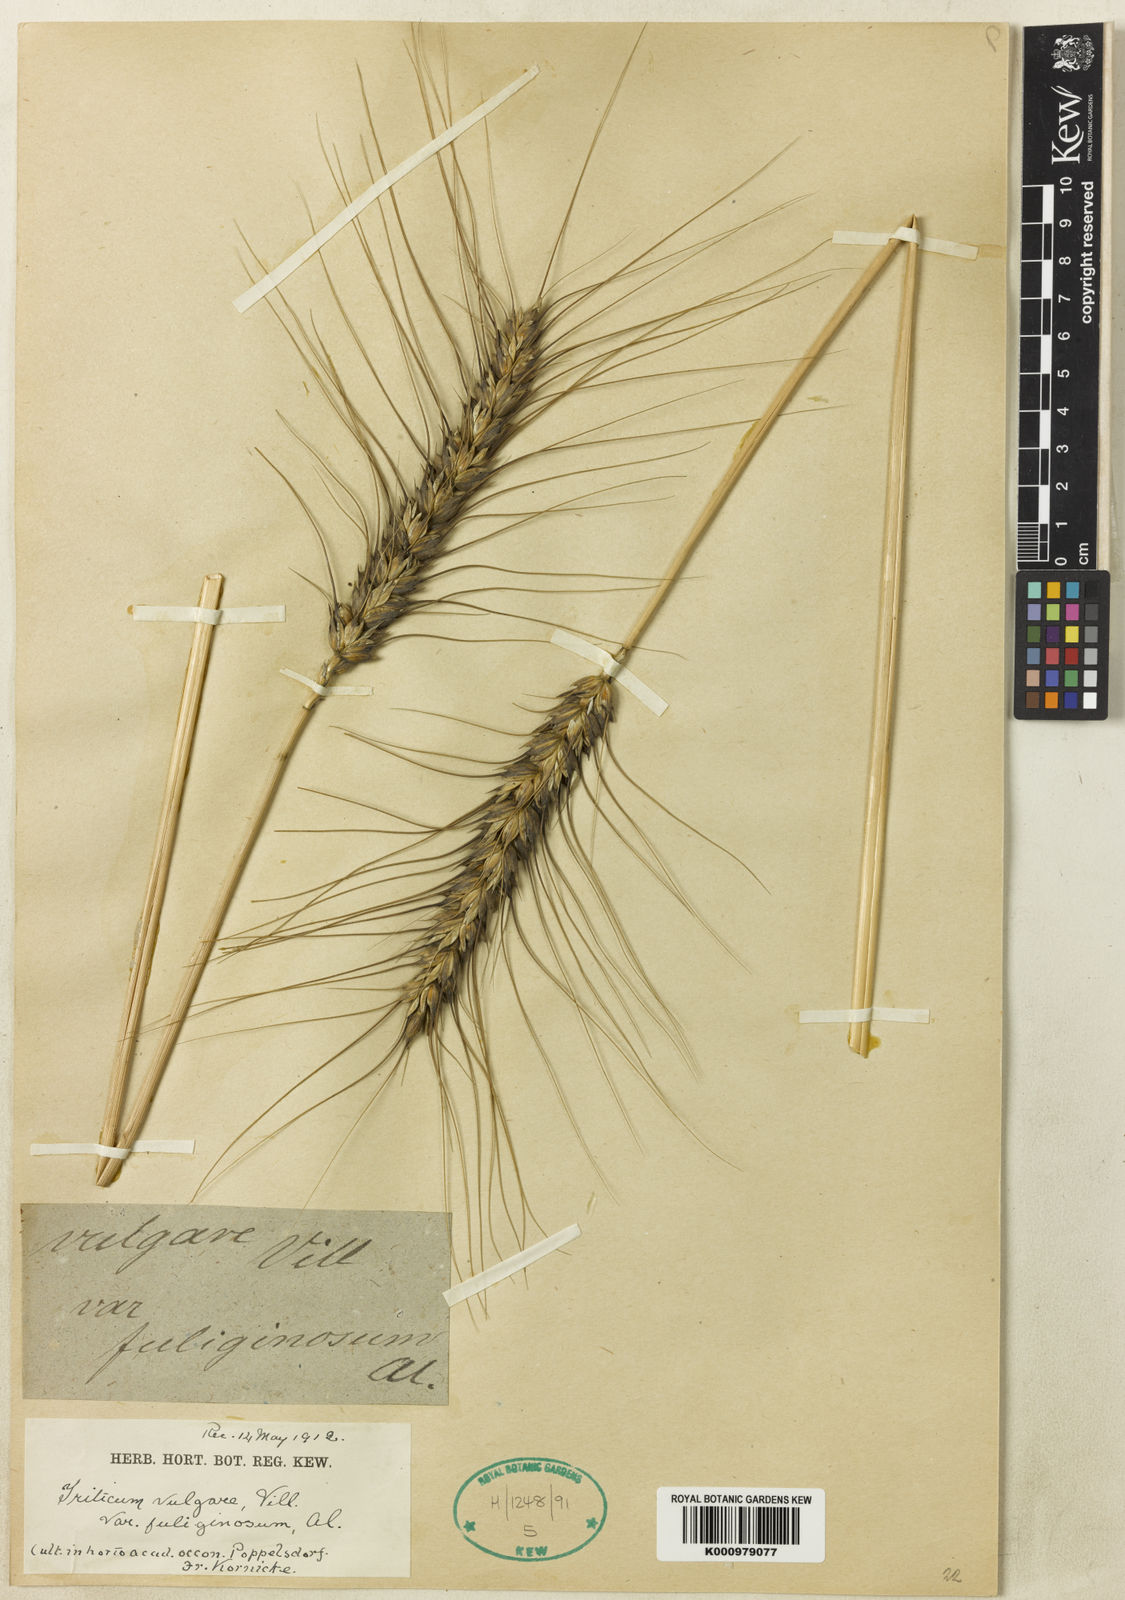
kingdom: Plantae
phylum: Tracheophyta
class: Liliopsida
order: Poales
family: Poaceae
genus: Triticum
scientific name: Triticum aestivum
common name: Common wheat
